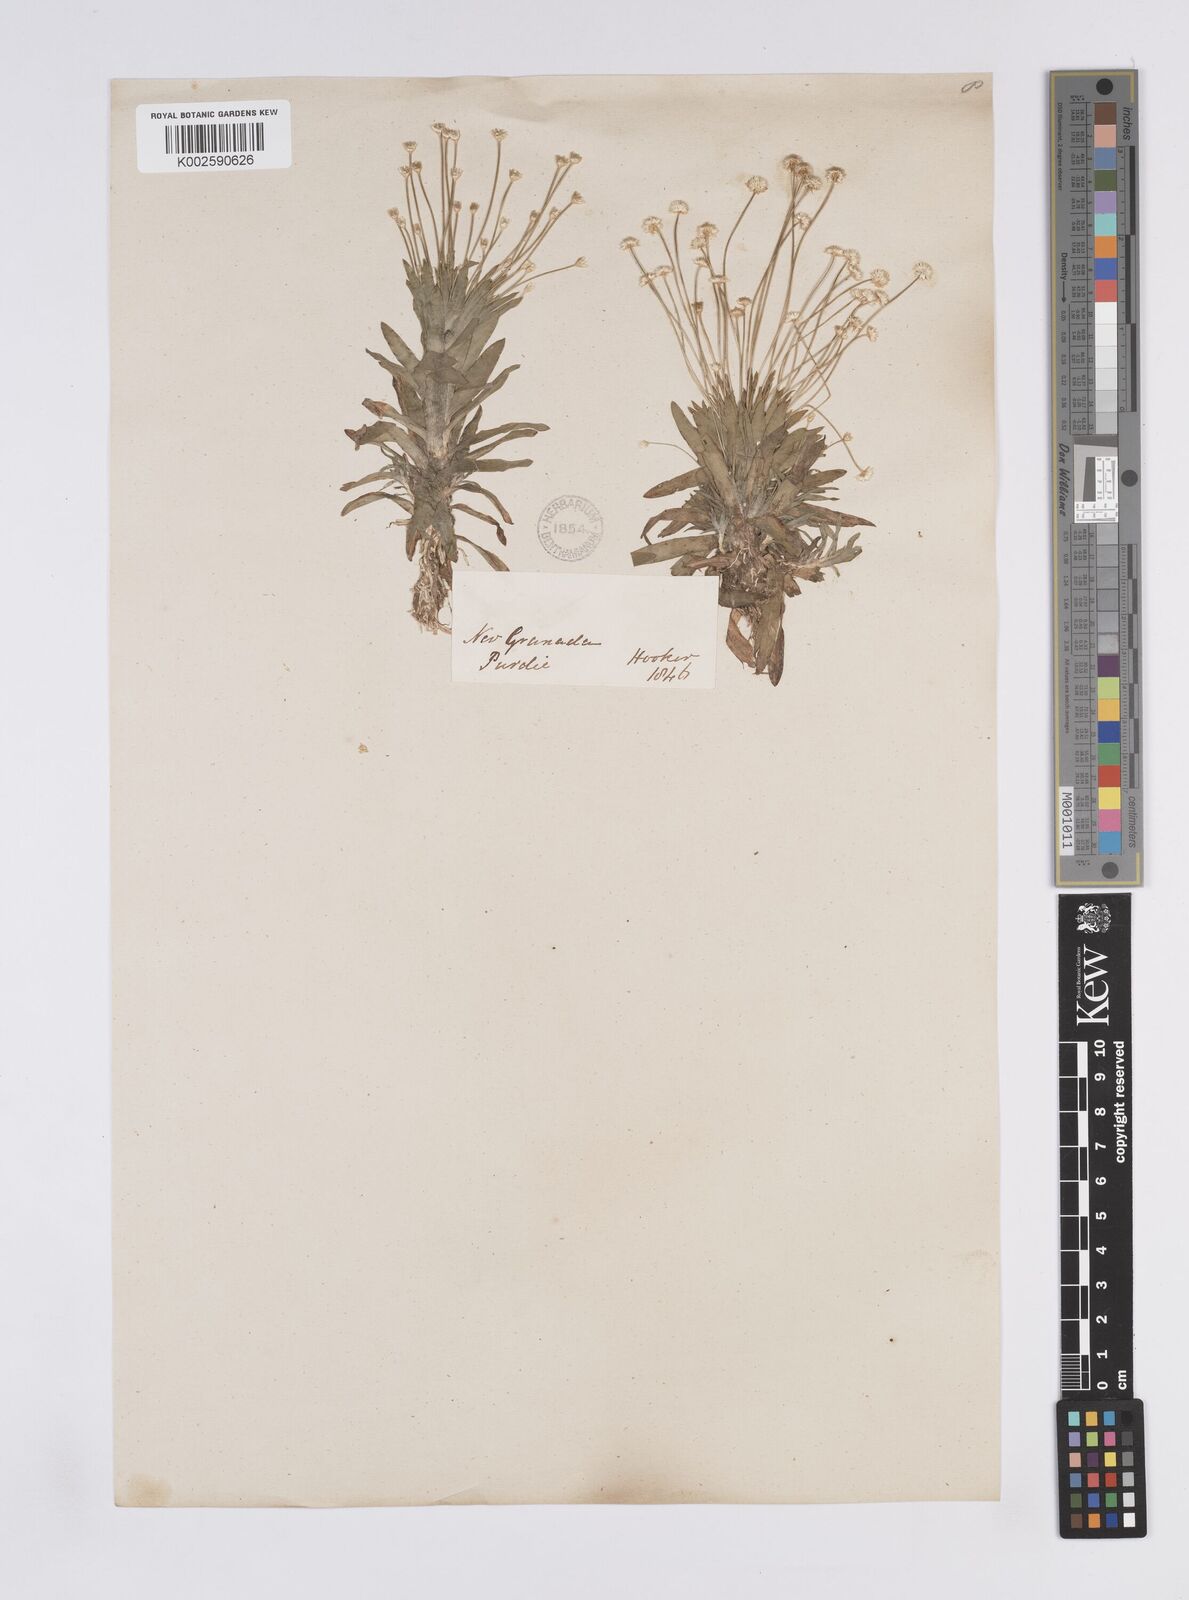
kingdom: Plantae
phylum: Tracheophyta
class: Liliopsida
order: Poales
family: Eriocaulaceae
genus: Syngonanthus
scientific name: Syngonanthus caulescens
